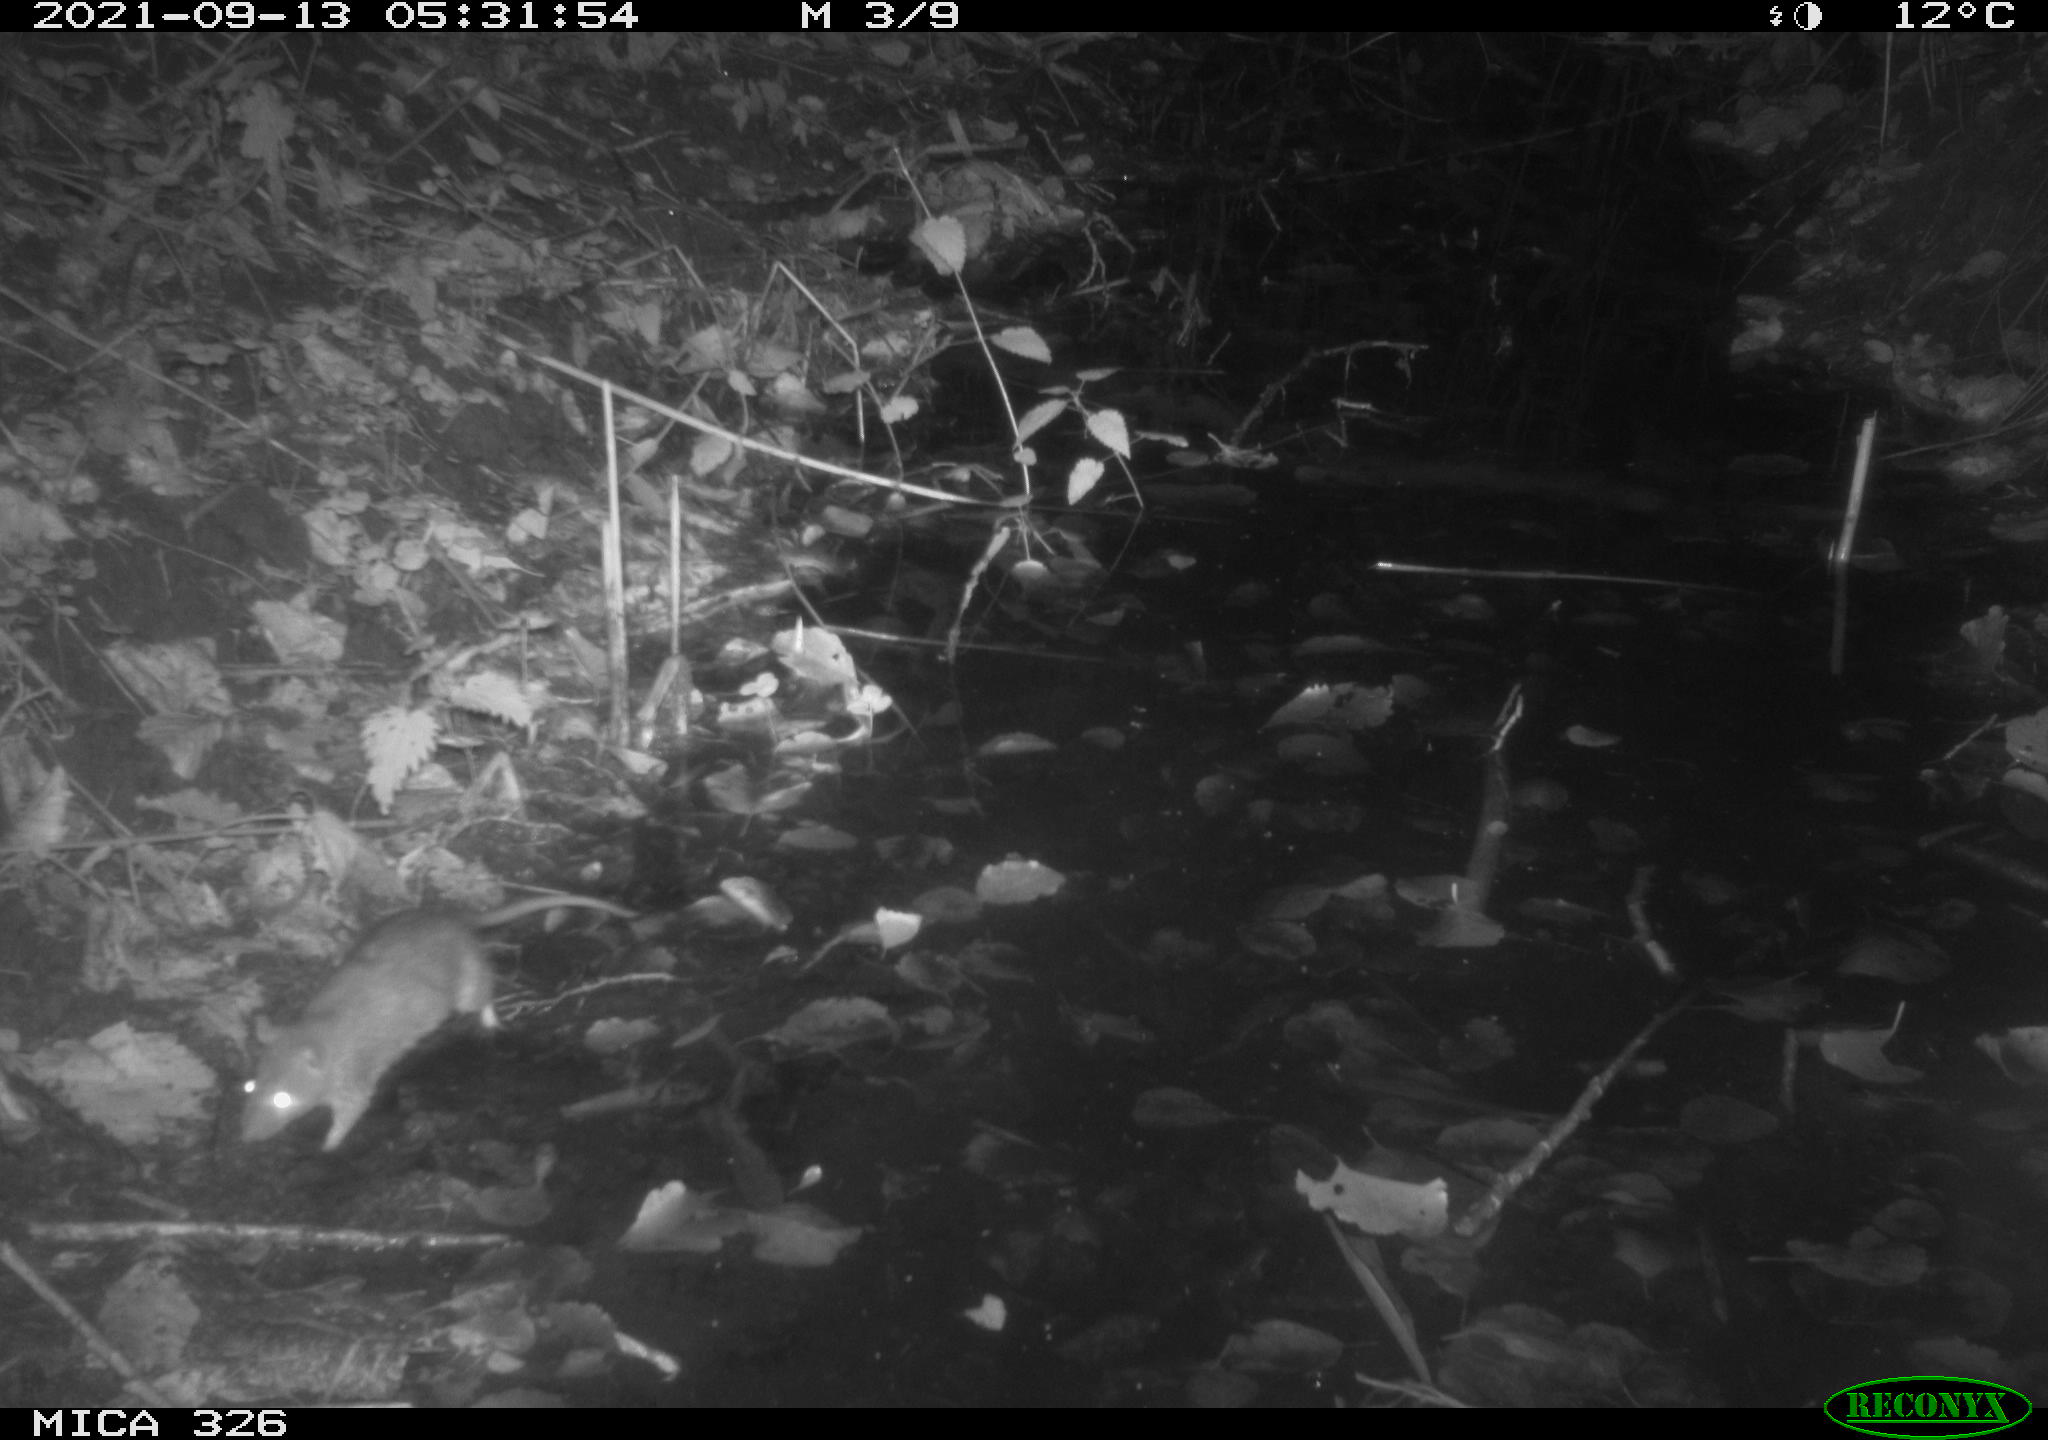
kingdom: Animalia
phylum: Chordata
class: Mammalia
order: Rodentia
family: Muridae
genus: Rattus
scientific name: Rattus norvegicus
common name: Brown rat
